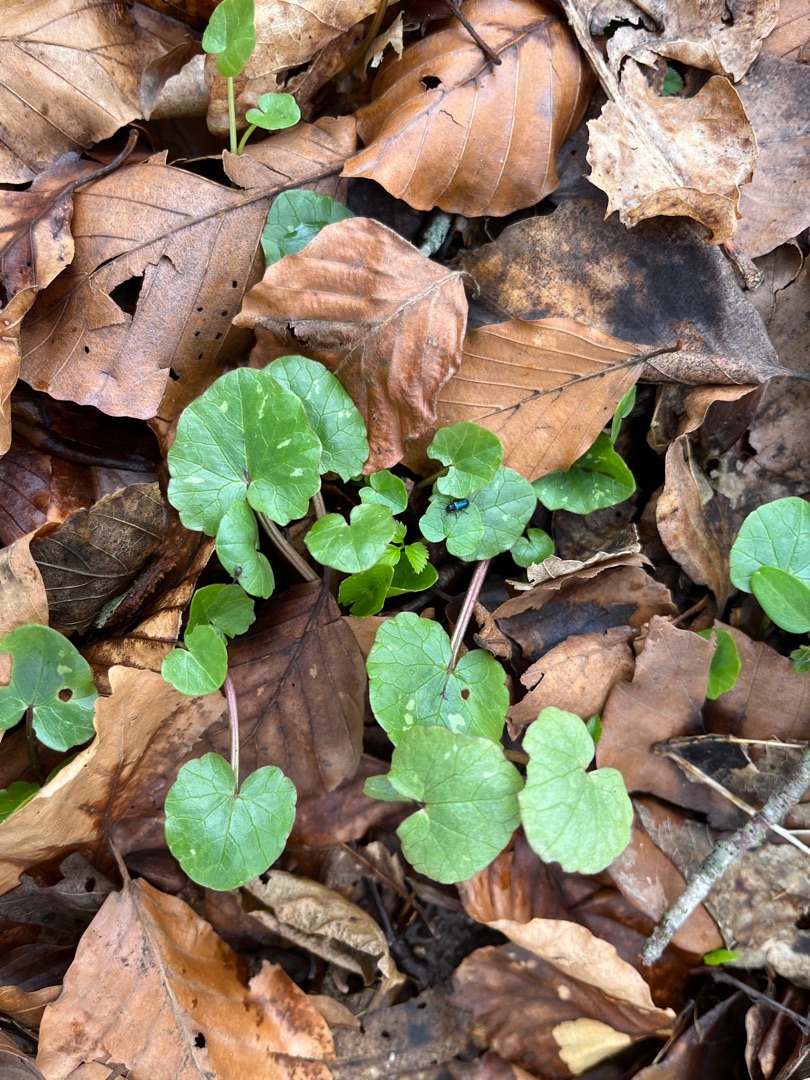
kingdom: Plantae
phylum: Tracheophyta
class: Magnoliopsida
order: Ranunculales
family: Ranunculaceae
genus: Ficaria
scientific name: Ficaria verna
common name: Vorterod
